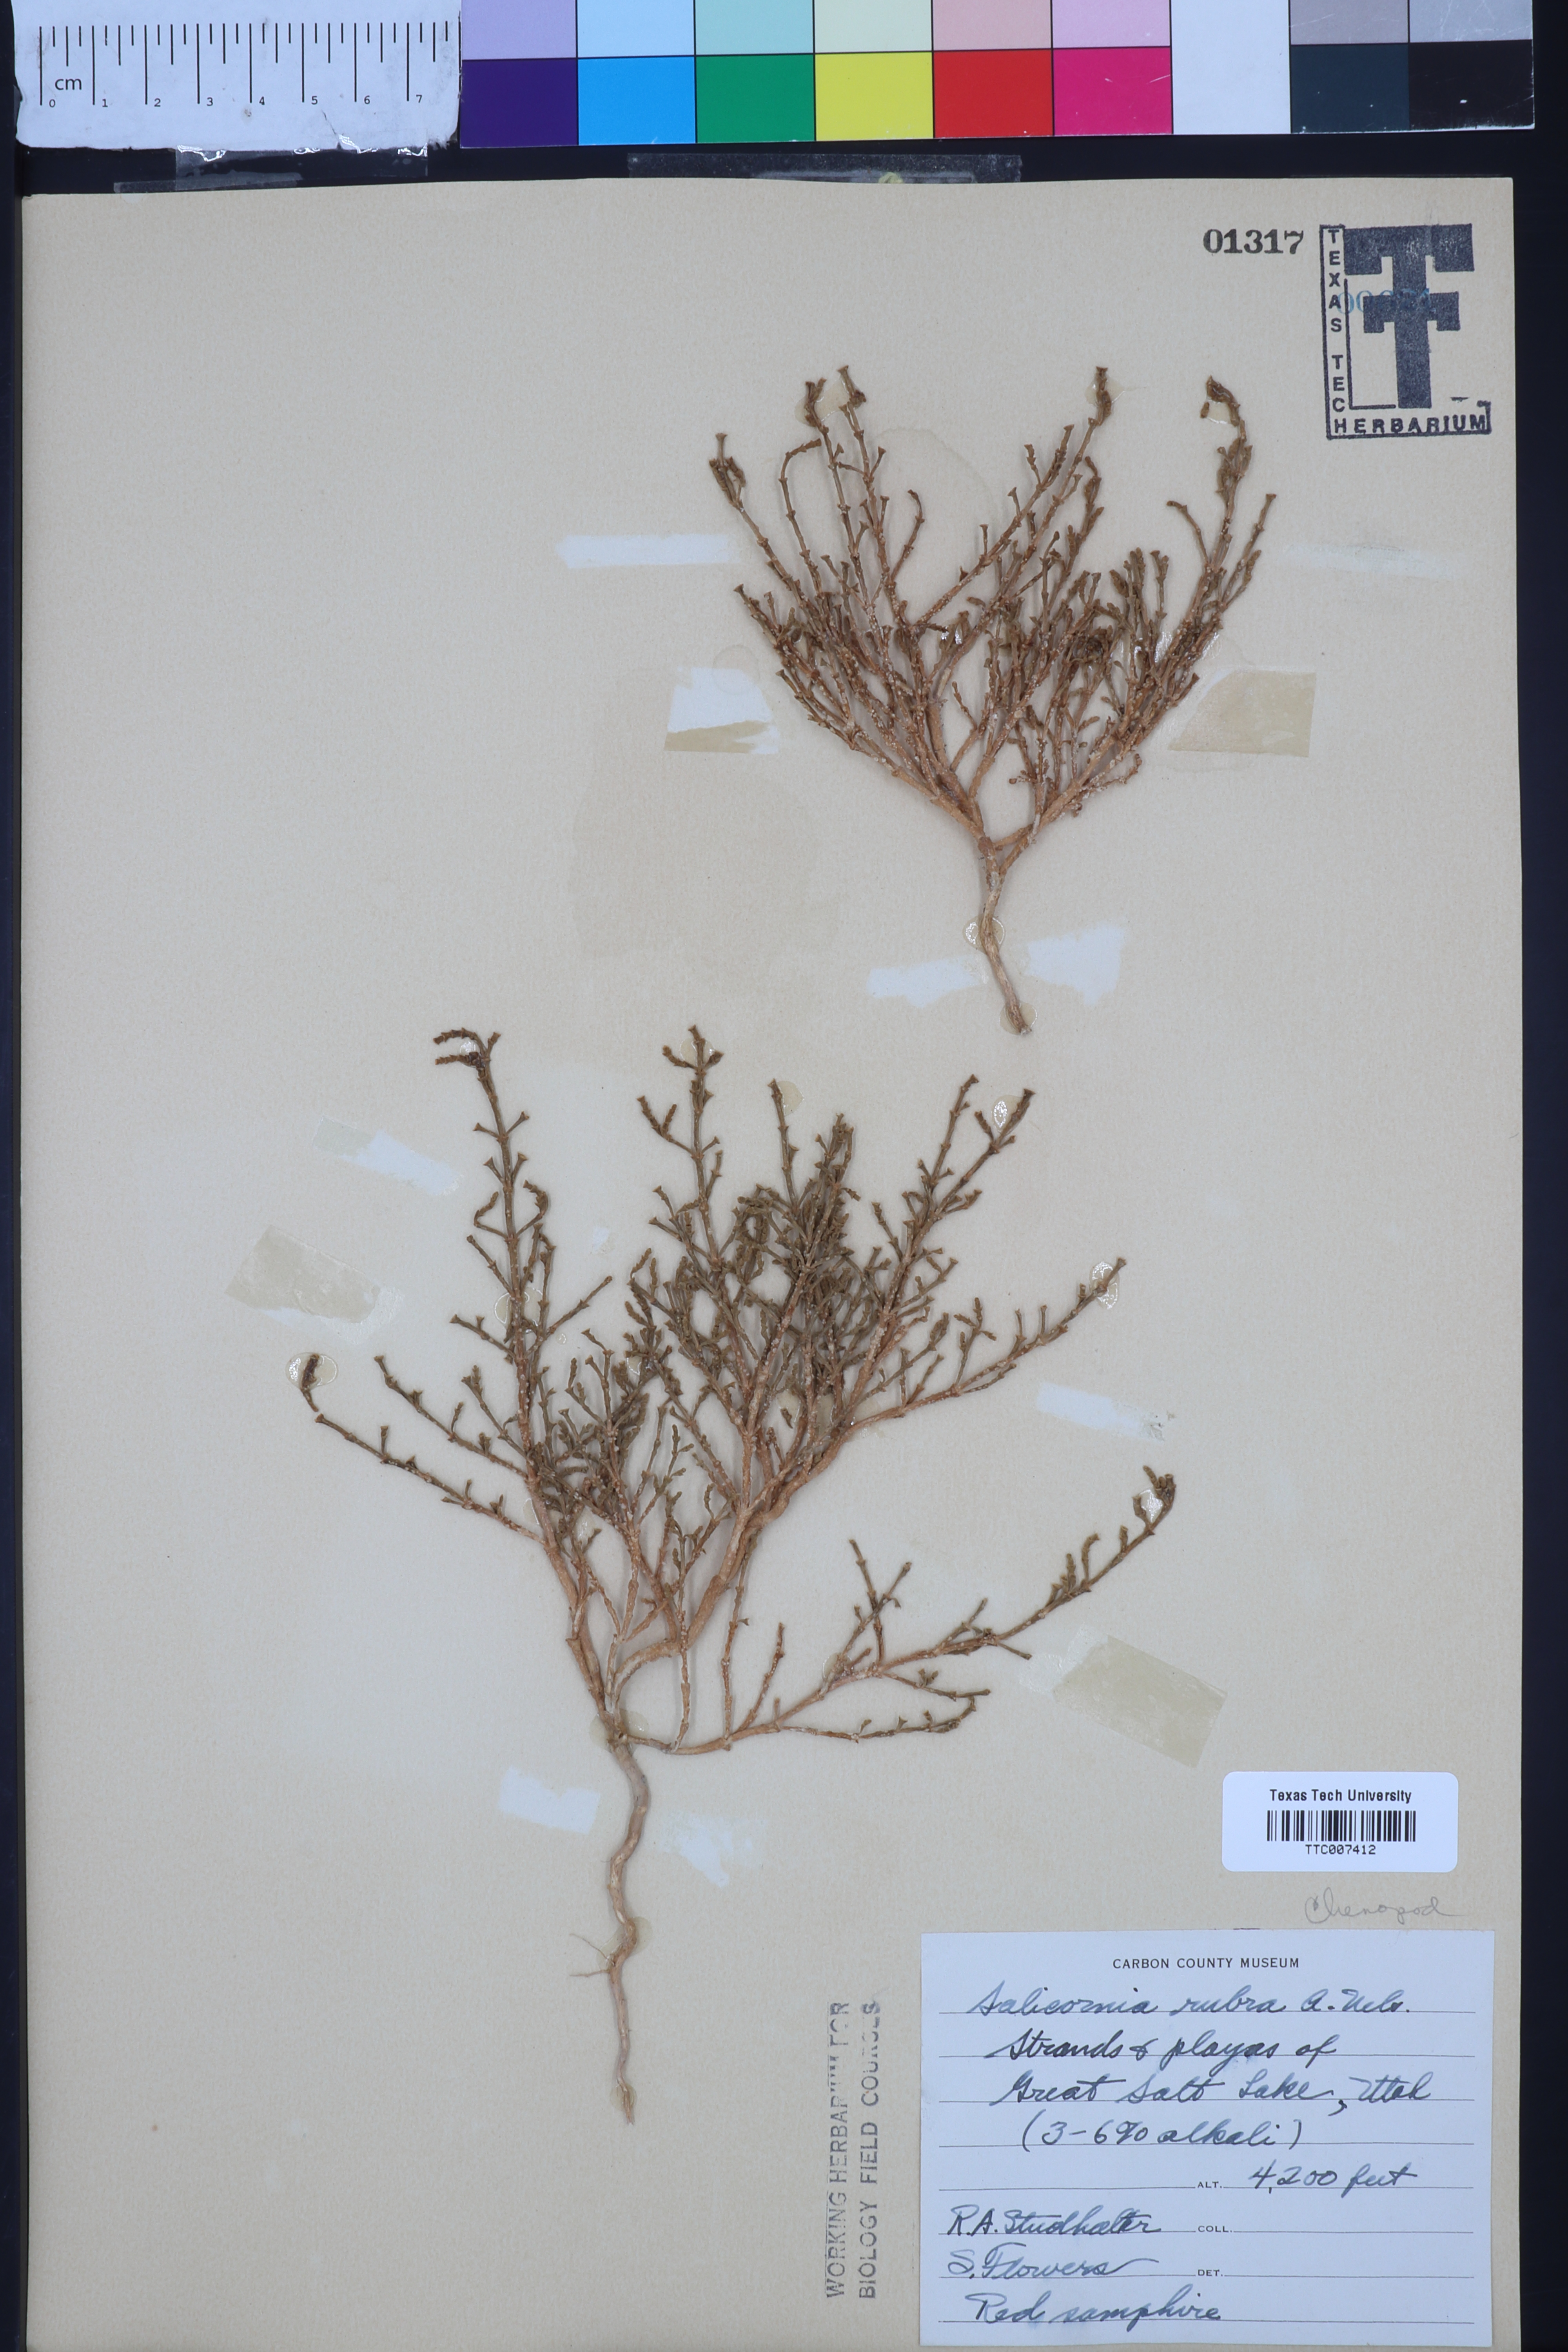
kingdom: Plantae
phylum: Tracheophyta
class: Magnoliopsida
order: Caryophyllales
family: Amaranthaceae
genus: Salicornia
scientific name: Salicornia rubra
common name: Red glasswort
